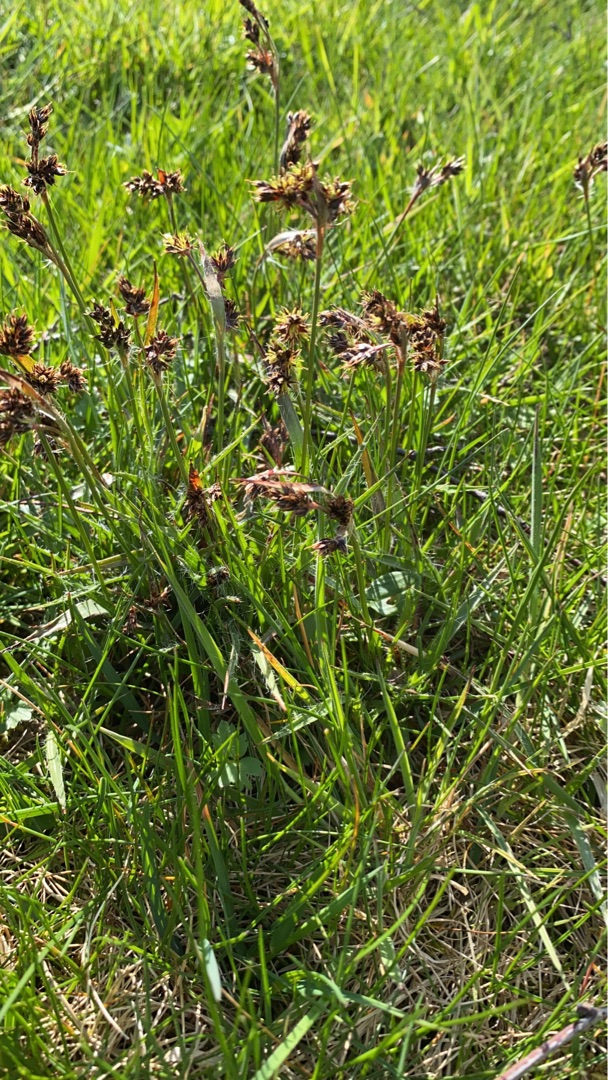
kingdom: Plantae
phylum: Tracheophyta
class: Liliopsida
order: Poales
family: Juncaceae
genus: Luzula
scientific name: Luzula campestris
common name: Mark-frytle
